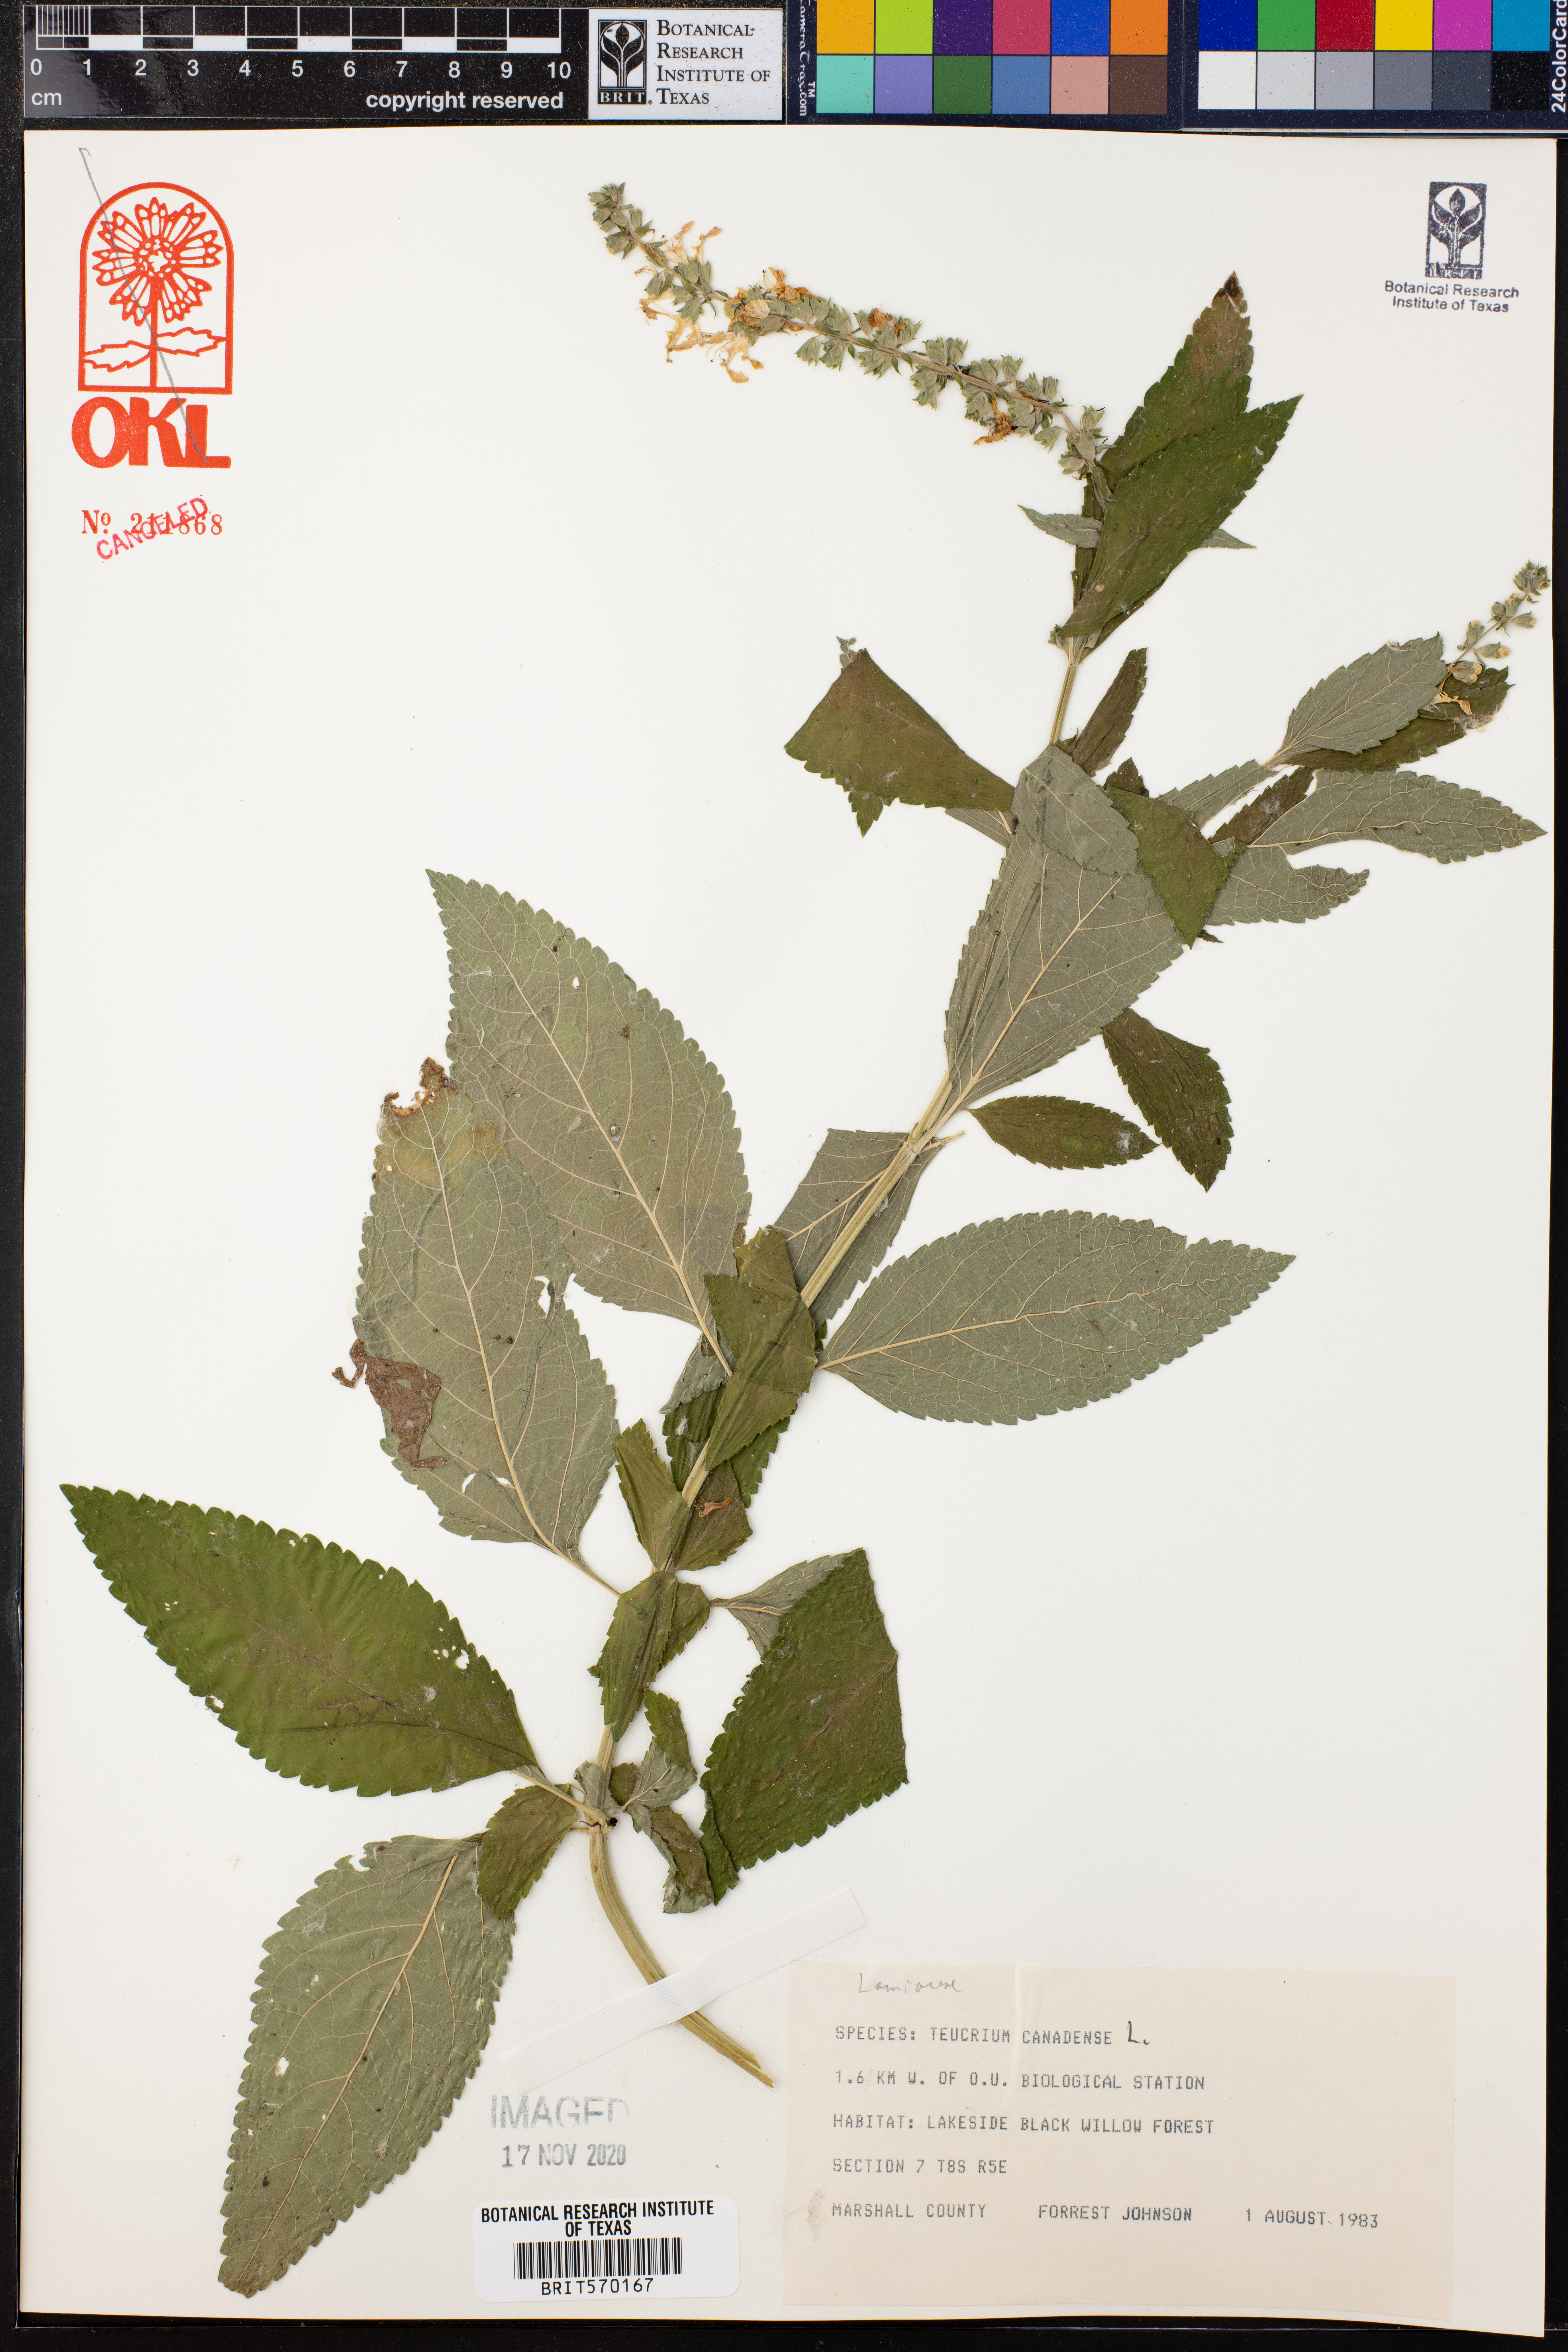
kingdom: Plantae
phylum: Tracheophyta
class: Magnoliopsida
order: Lamiales
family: Lamiaceae
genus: Teucrium
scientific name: Teucrium canadense
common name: American germander
